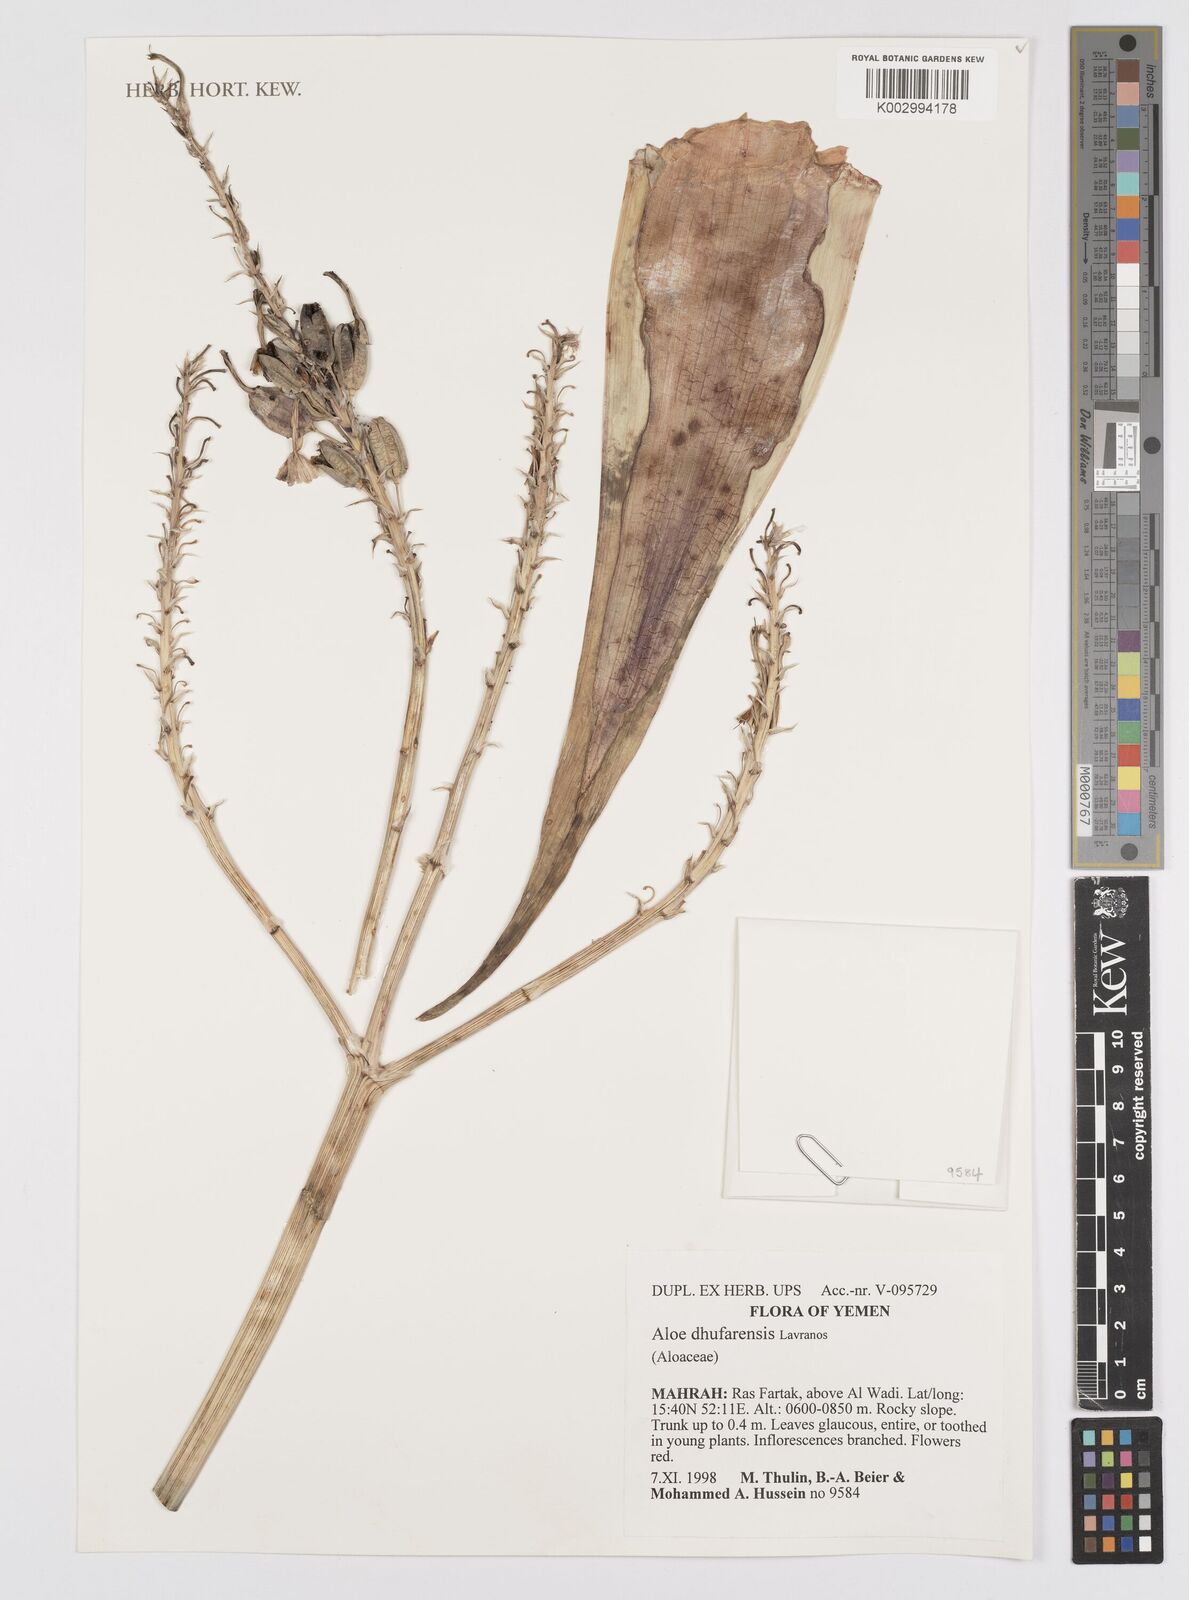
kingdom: Plantae
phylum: Tracheophyta
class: Liliopsida
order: Asparagales
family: Asphodelaceae
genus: Aloe
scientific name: Aloe dhufarensis
